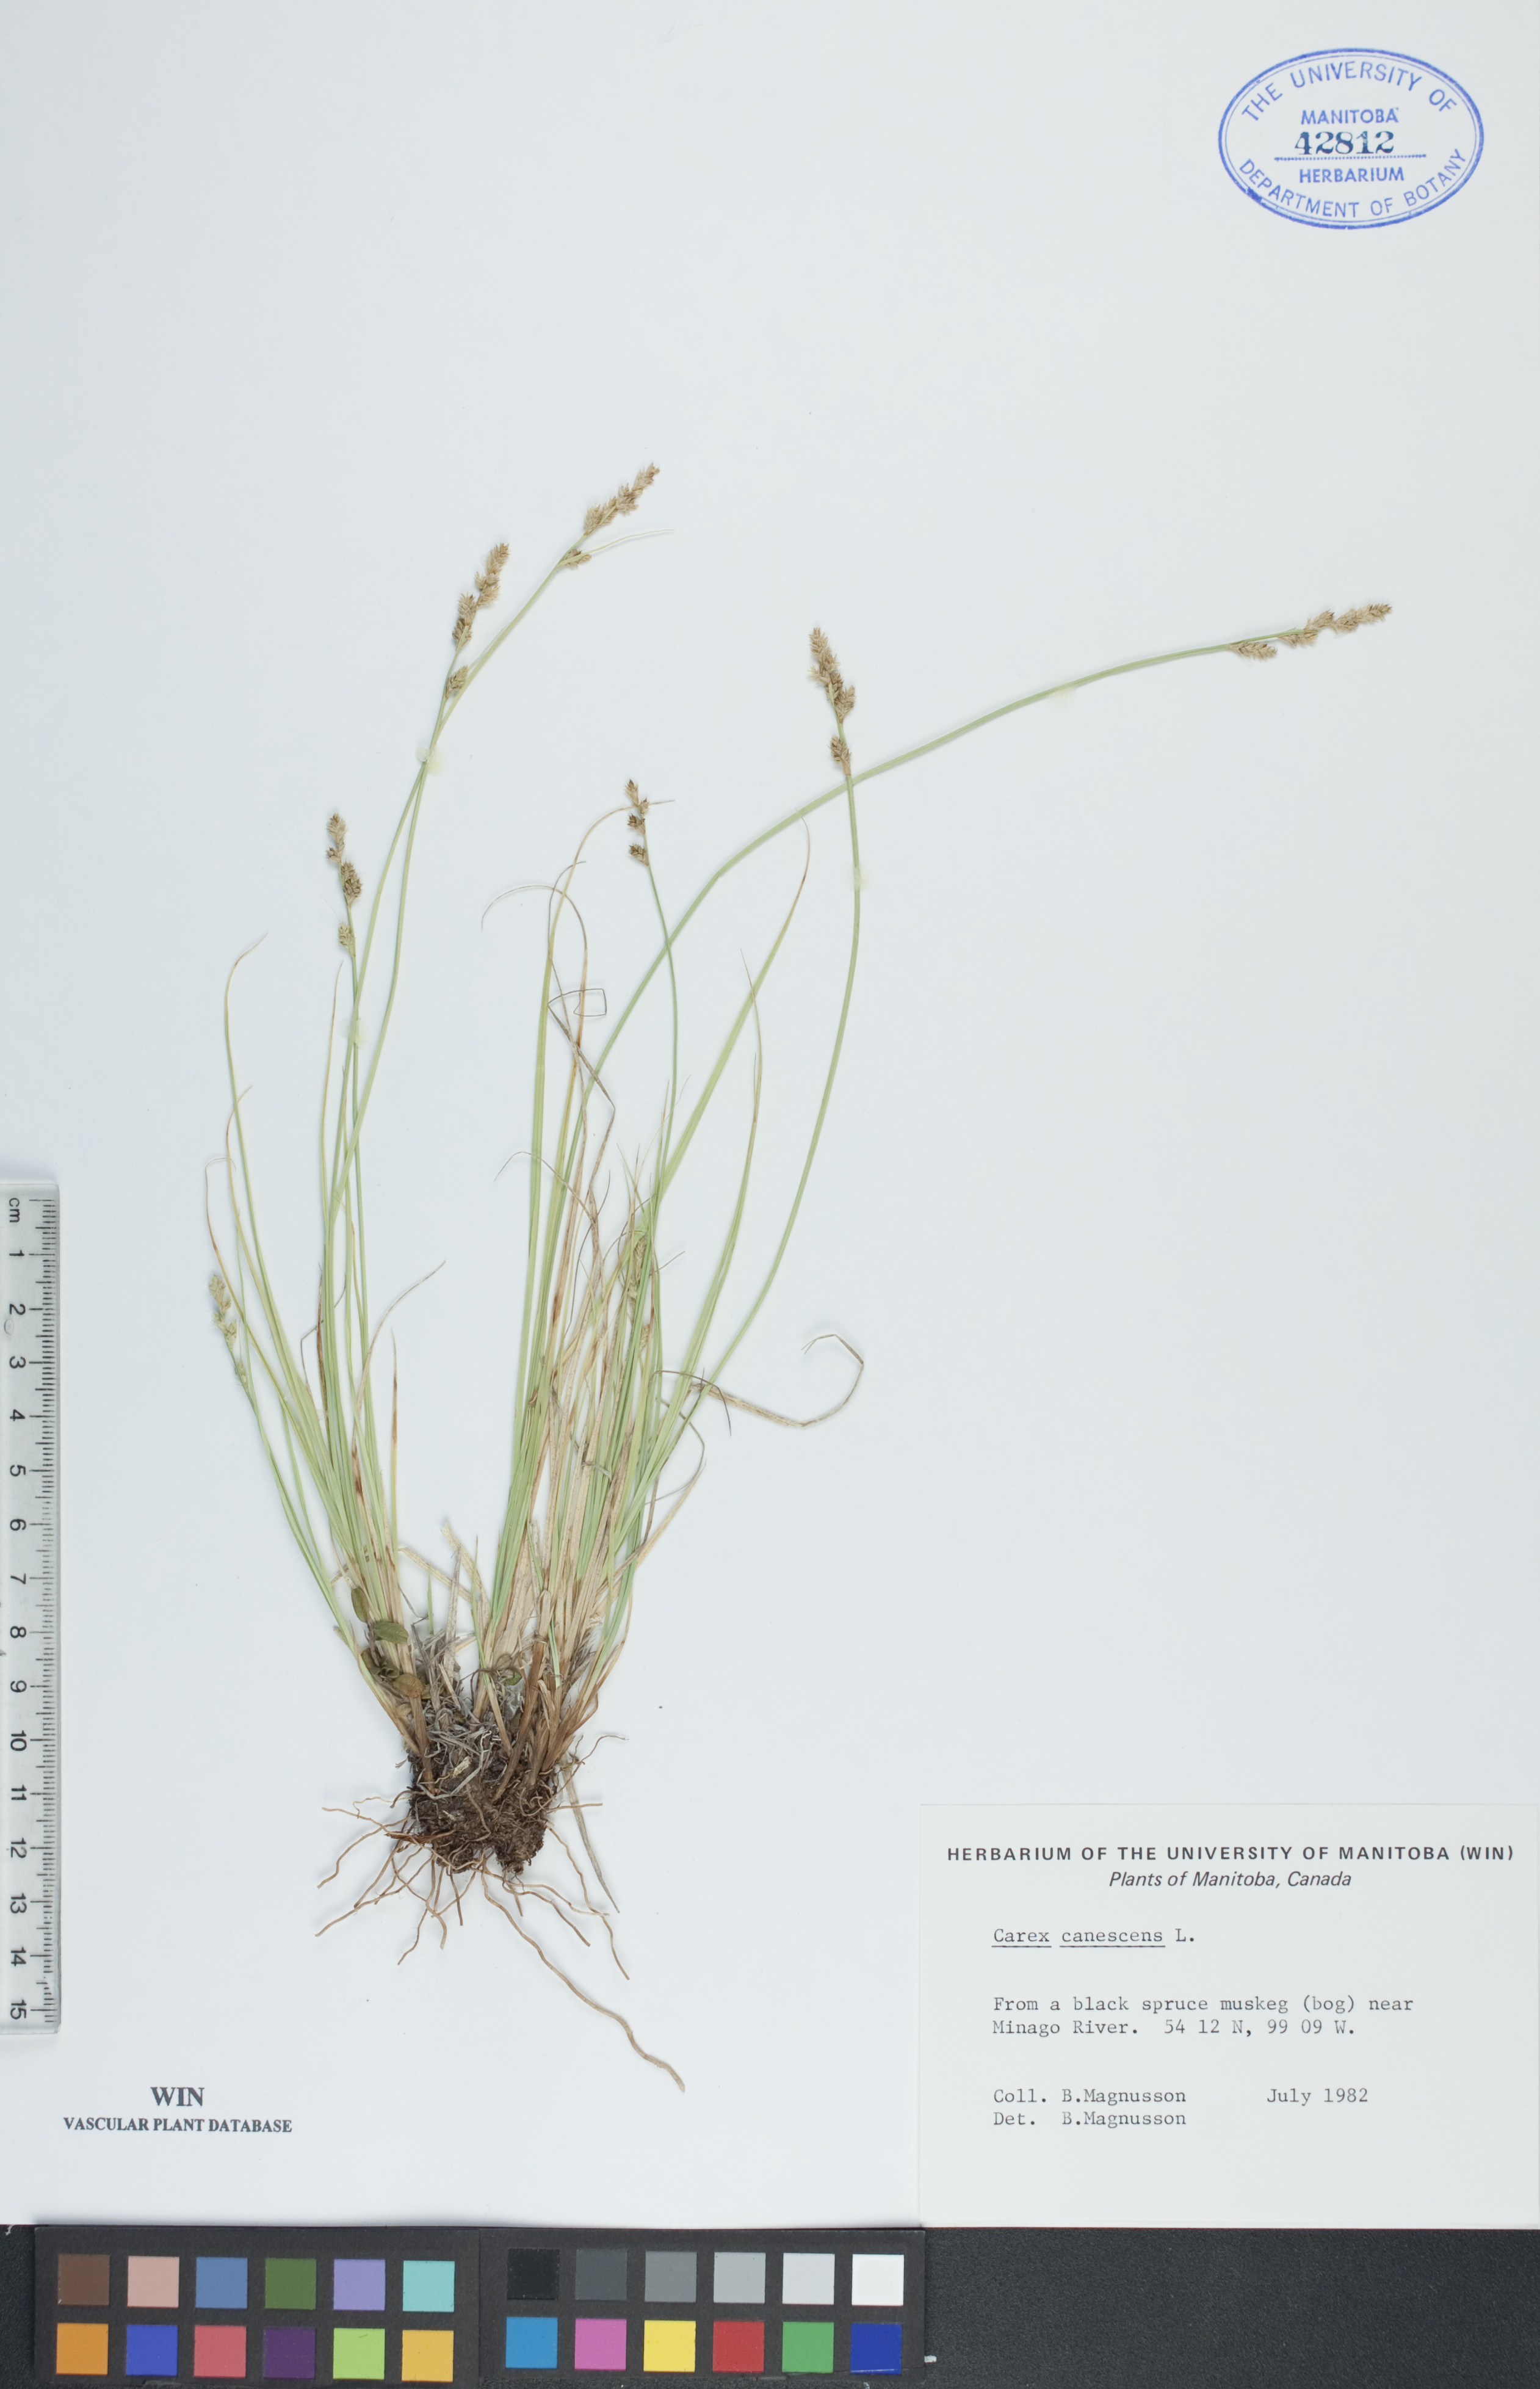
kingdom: Plantae
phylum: Tracheophyta
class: Liliopsida
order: Poales
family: Cyperaceae
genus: Carex
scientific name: Carex canescens
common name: White sedge
